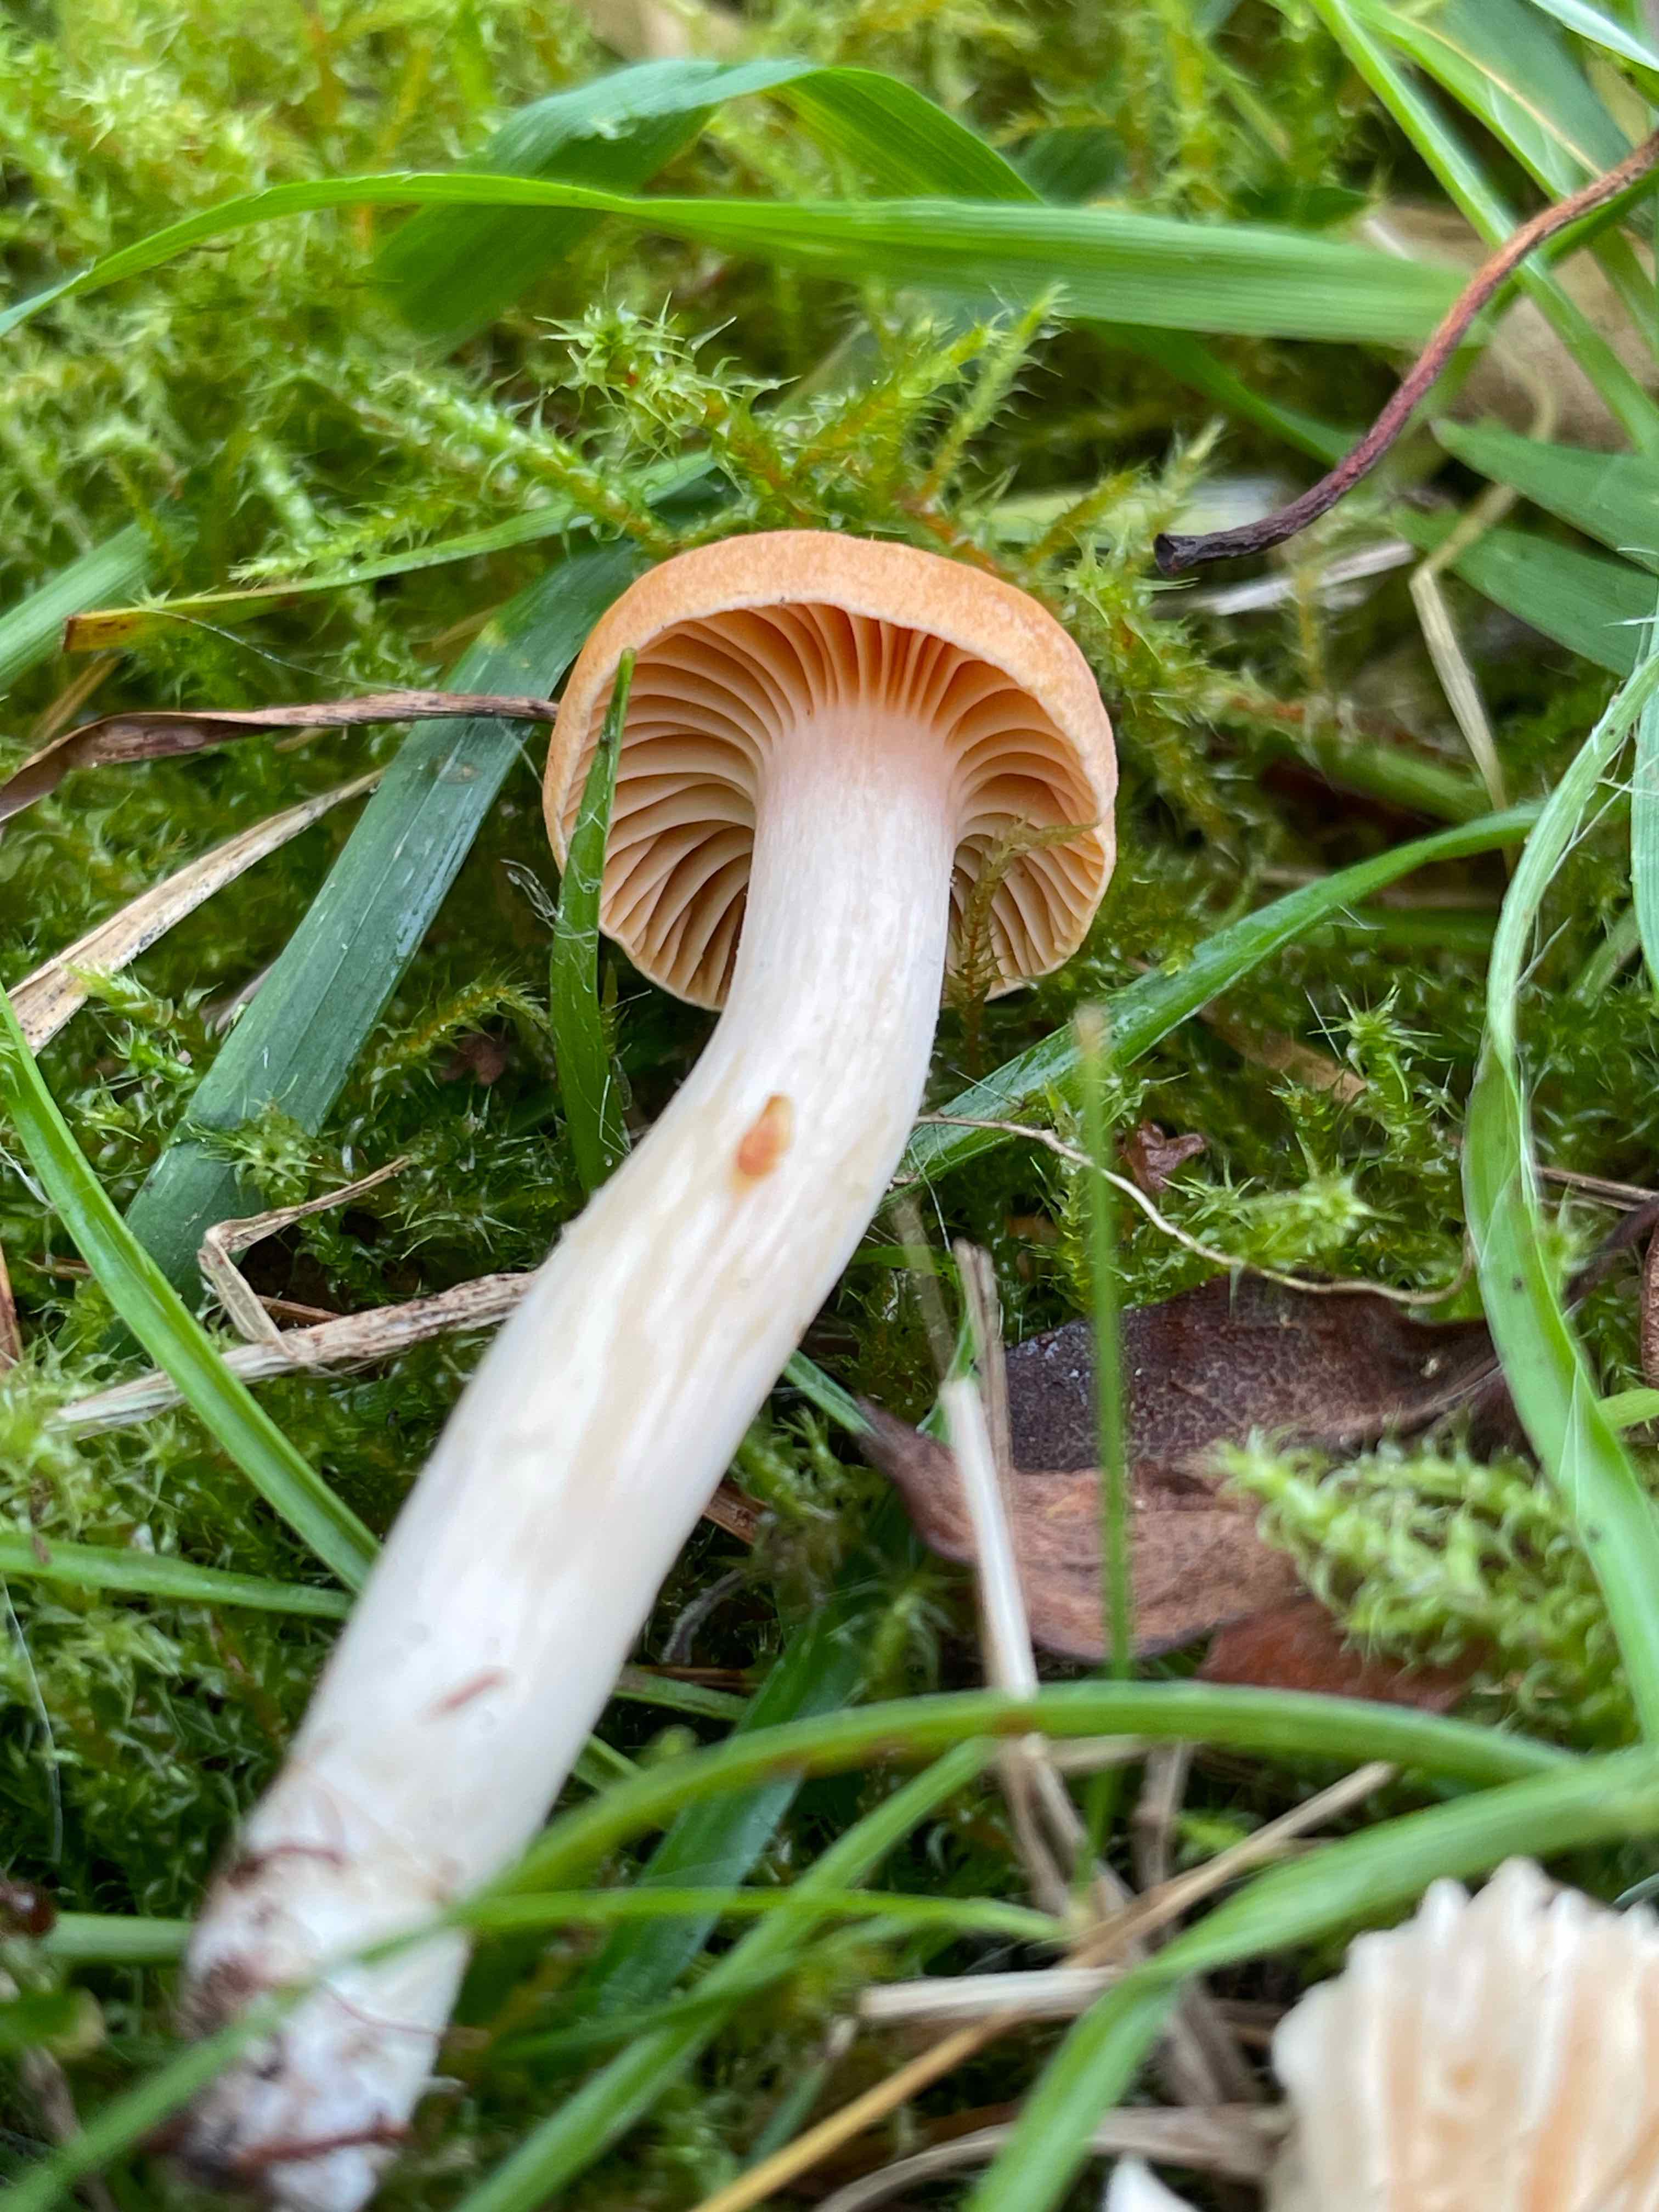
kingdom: Fungi
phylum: Basidiomycota
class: Agaricomycetes
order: Agaricales
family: Hygrophoraceae
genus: Cuphophyllus
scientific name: Cuphophyllus pratensis
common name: eng-vokshat
